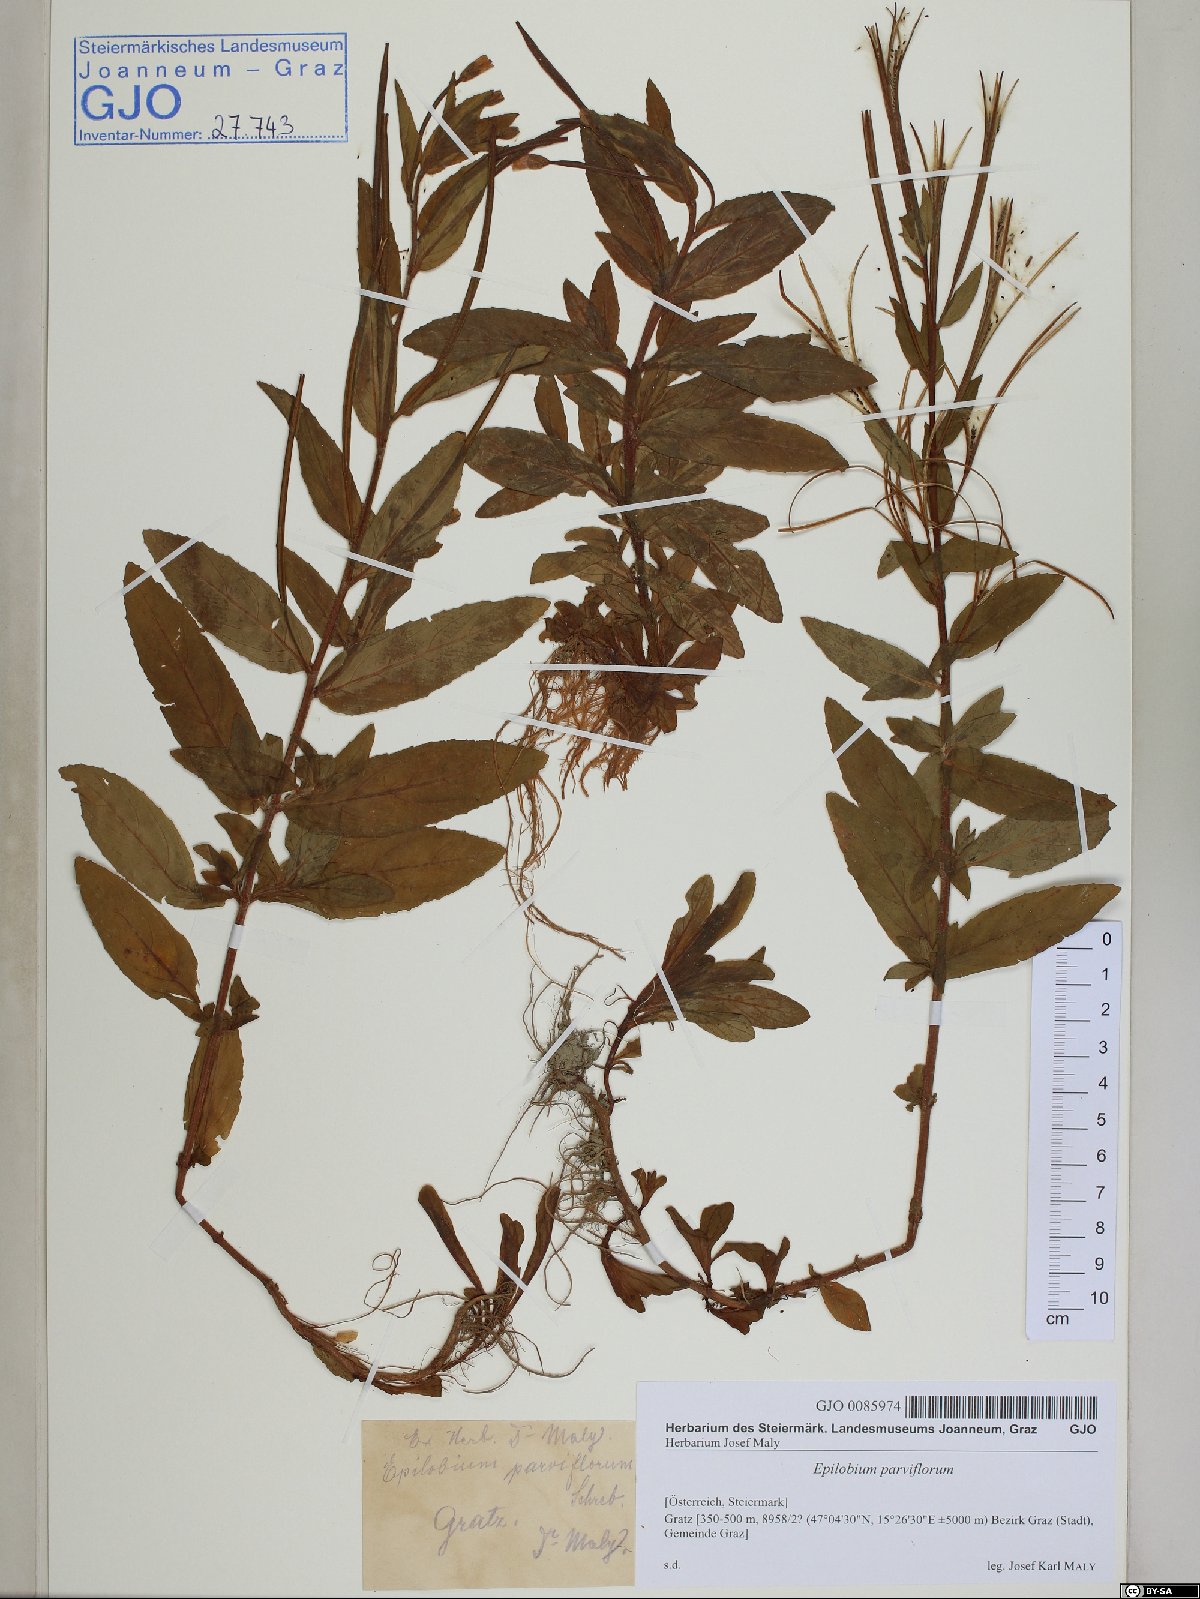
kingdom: Plantae
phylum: Tracheophyta
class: Magnoliopsida
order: Myrtales
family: Onagraceae
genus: Epilobium
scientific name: Epilobium parviflorum
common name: Hoary willowherb
